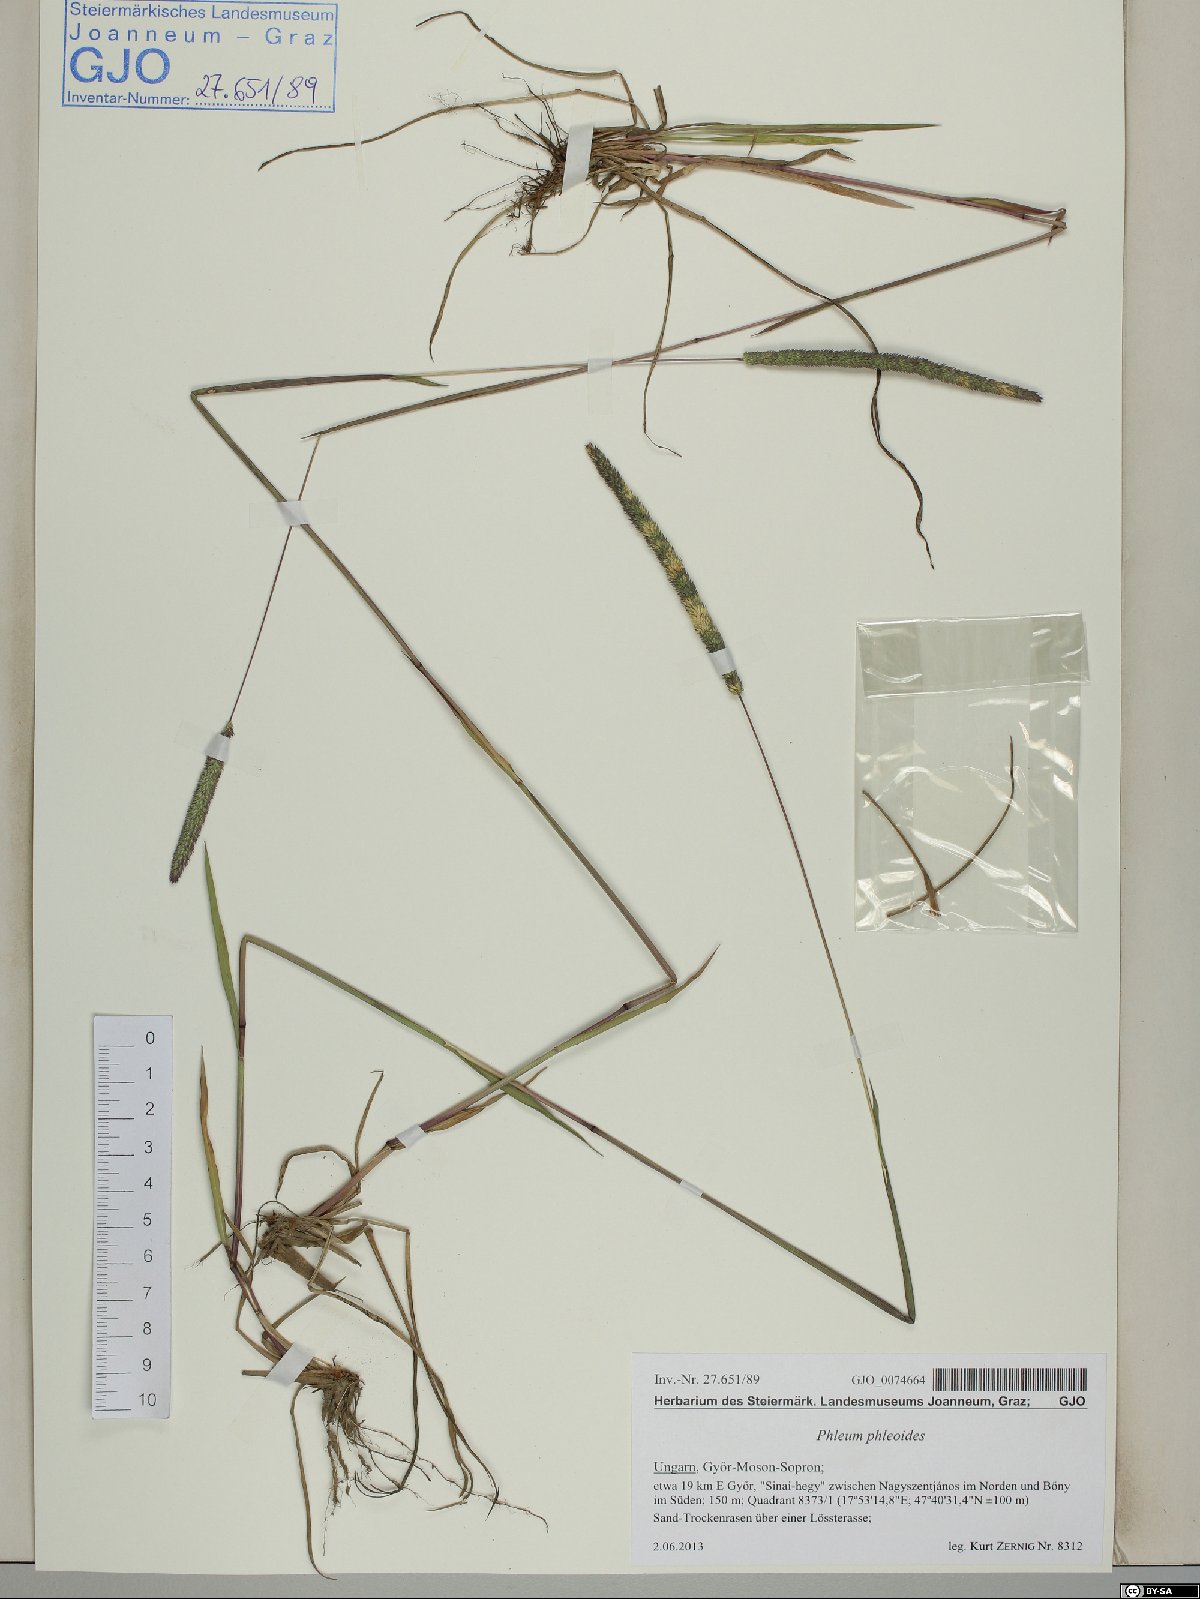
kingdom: Plantae
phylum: Tracheophyta
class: Liliopsida
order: Poales
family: Poaceae
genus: Phleum
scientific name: Phleum phleoides
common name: Purple-stem cat's-tail
